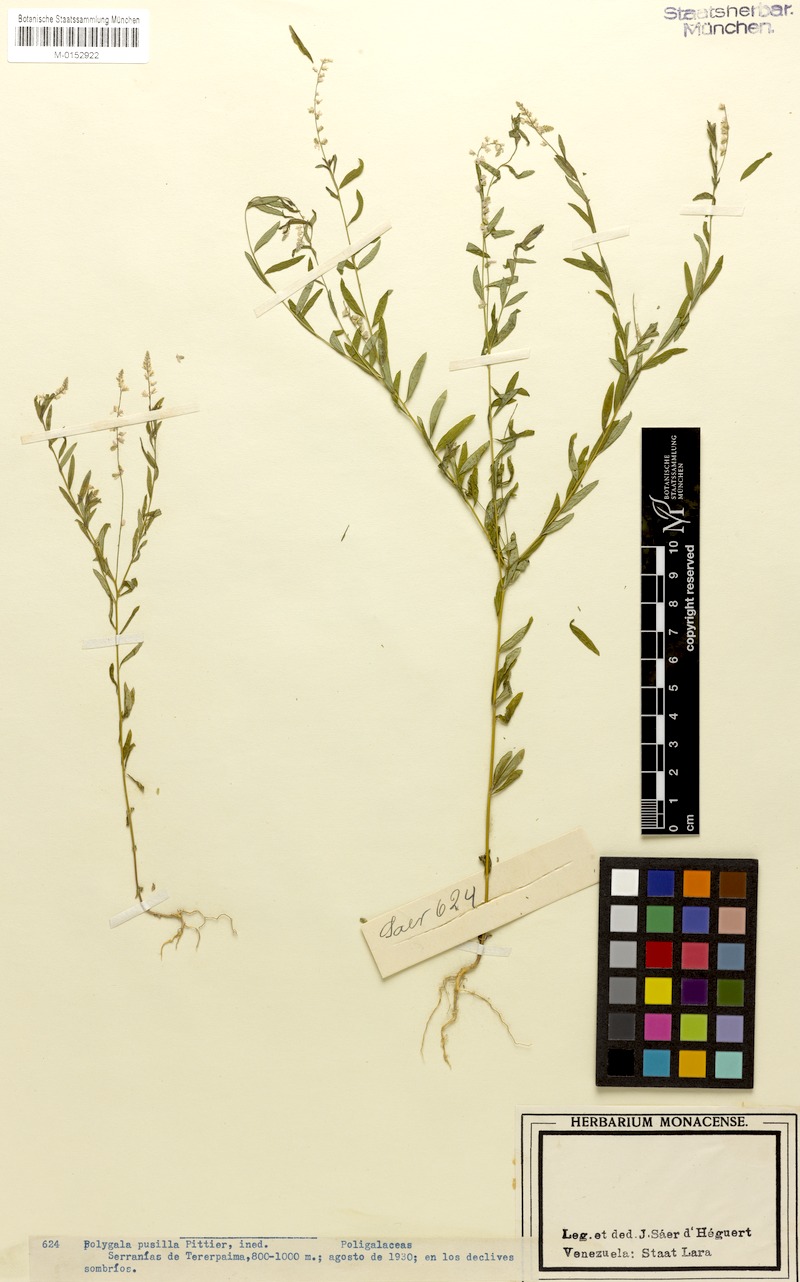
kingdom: Plantae
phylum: Tracheophyta
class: Magnoliopsida
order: Fabales
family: Polygalaceae
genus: Polygala
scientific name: Polygala
